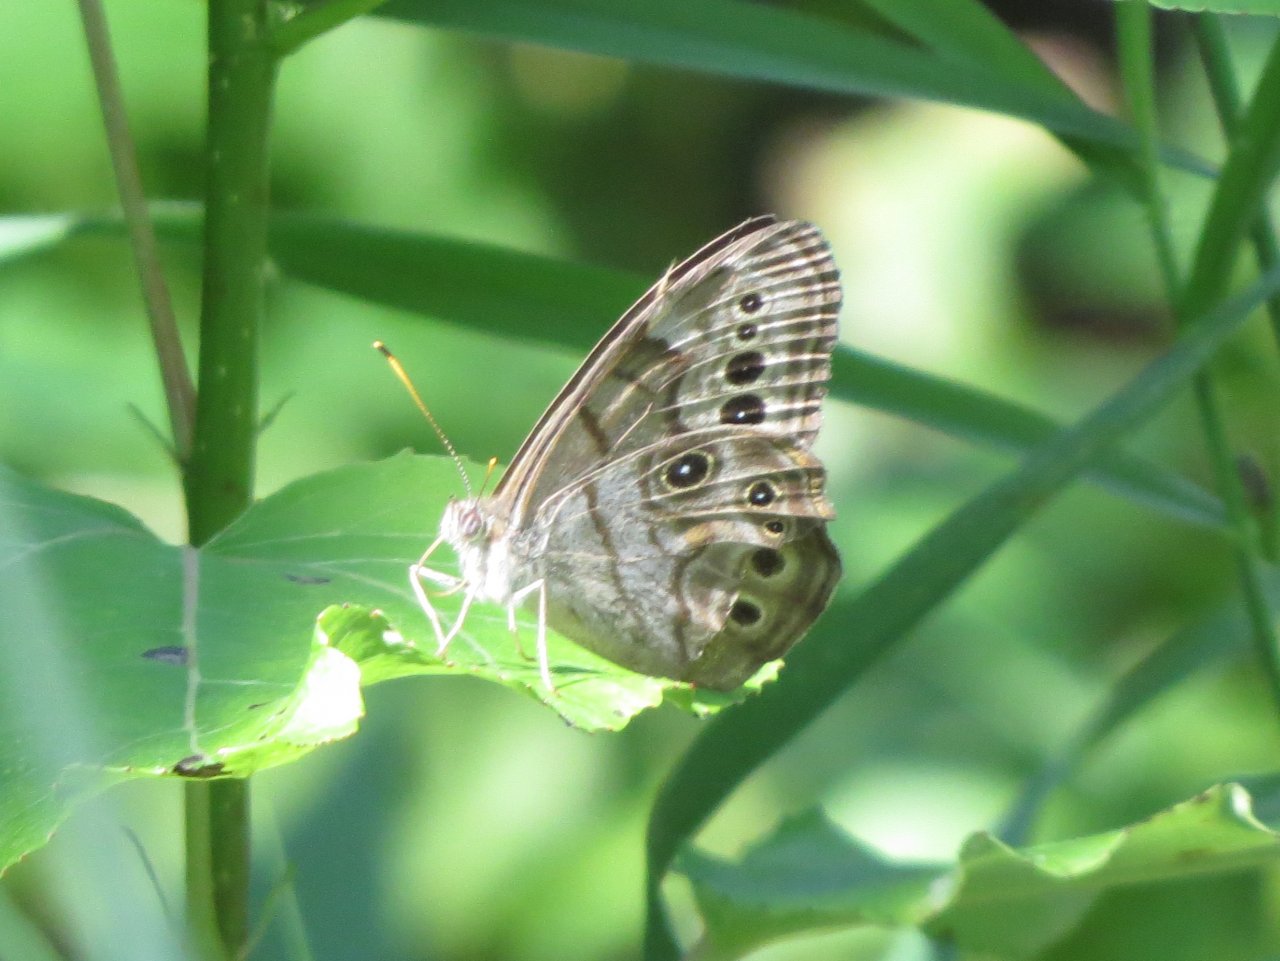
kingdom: Animalia
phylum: Arthropoda
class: Insecta
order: Lepidoptera
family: Nymphalidae
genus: Lethe
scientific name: Lethe anthedon
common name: Northern Pearly-Eye
